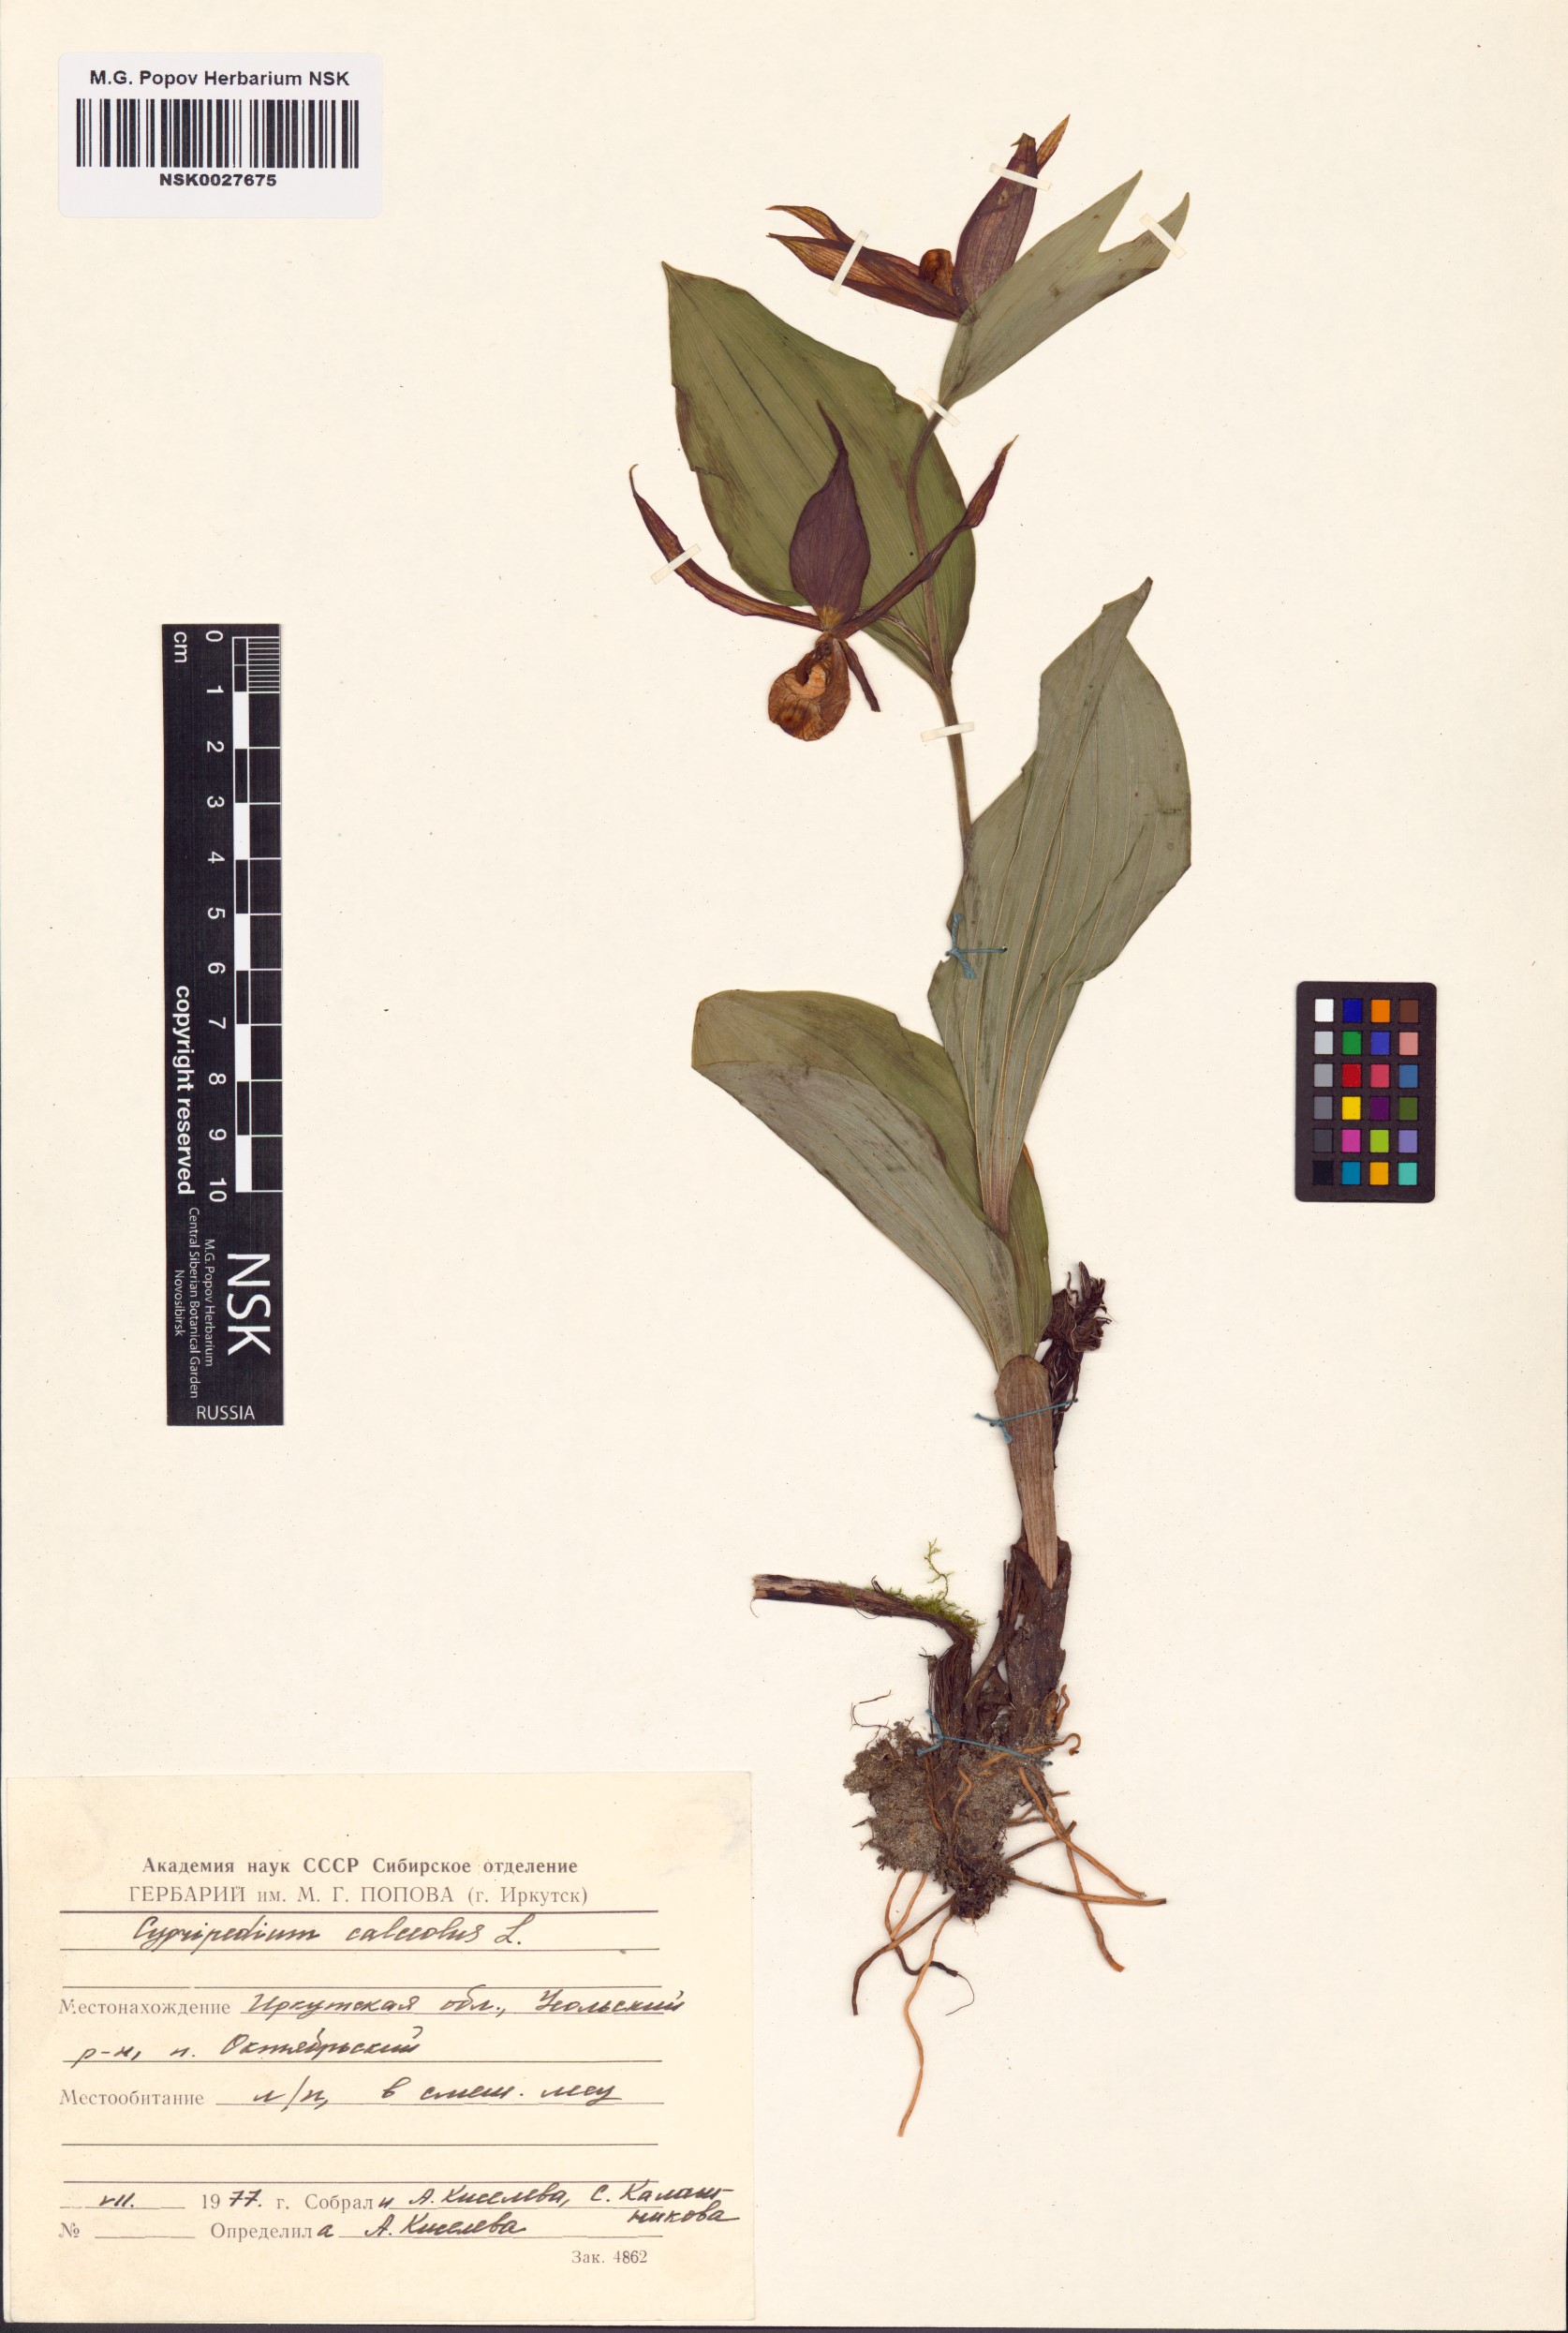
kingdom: Plantae
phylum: Tracheophyta
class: Liliopsida
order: Asparagales
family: Orchidaceae
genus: Cypripedium
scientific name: Cypripedium calceolus
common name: Lady's-slipper
